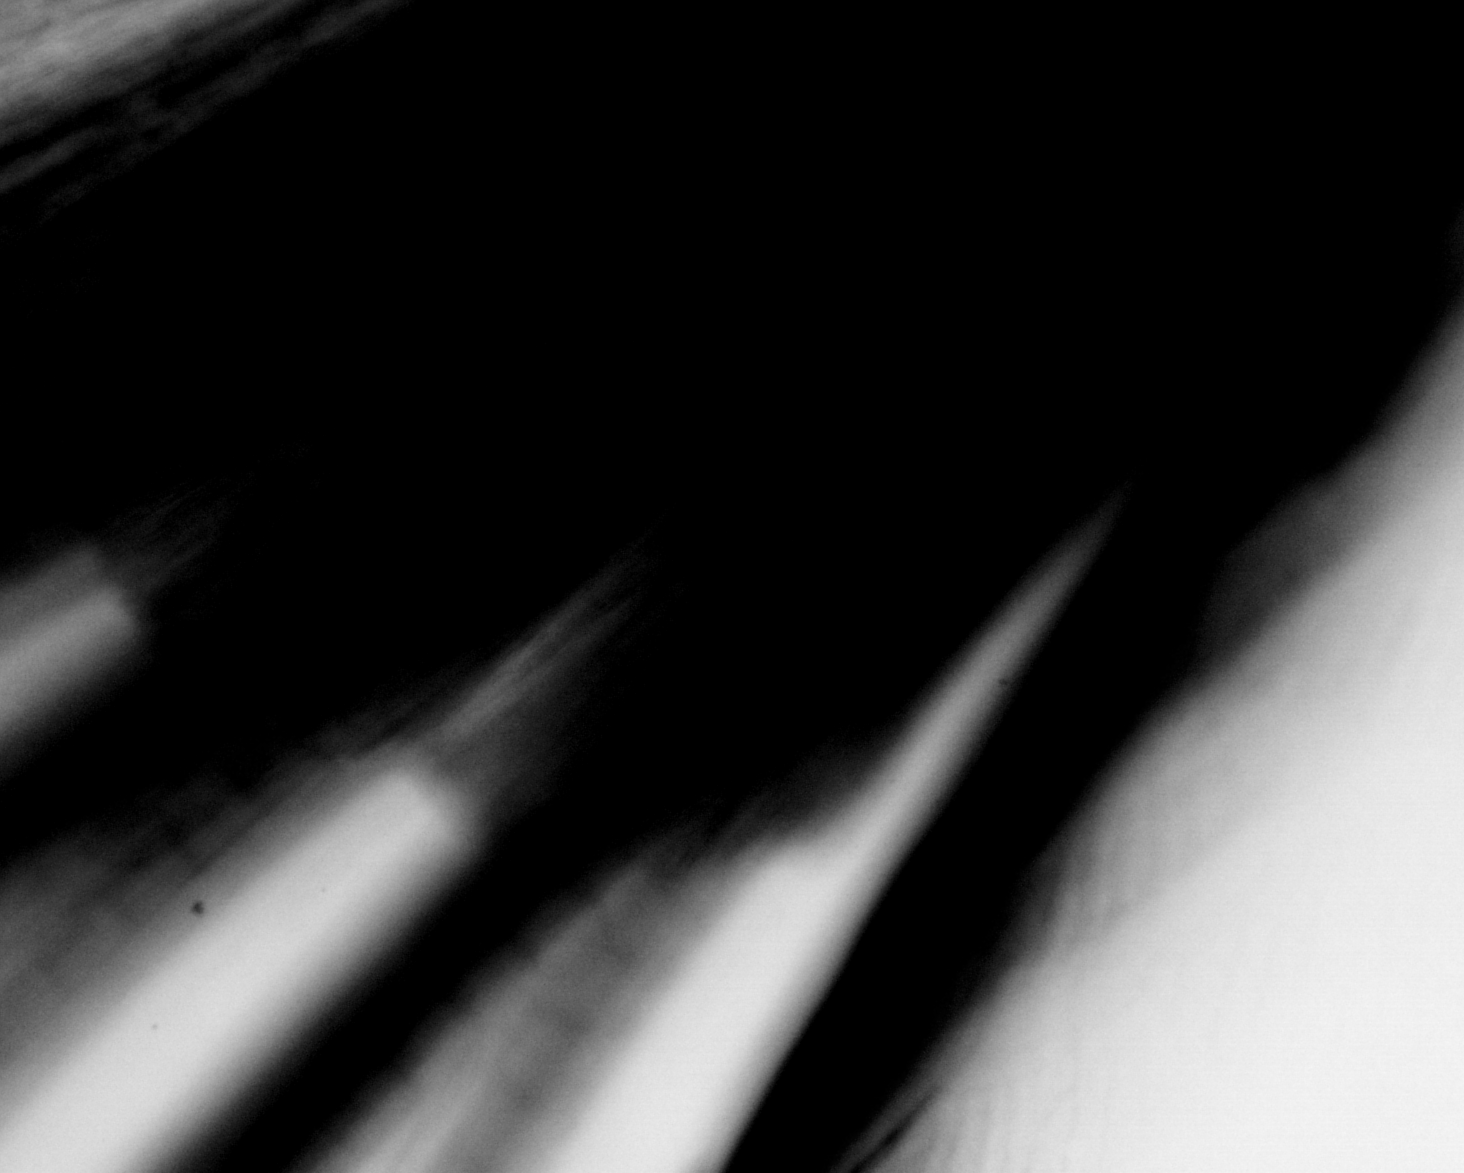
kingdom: Animalia
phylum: Chordata
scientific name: Chordata
